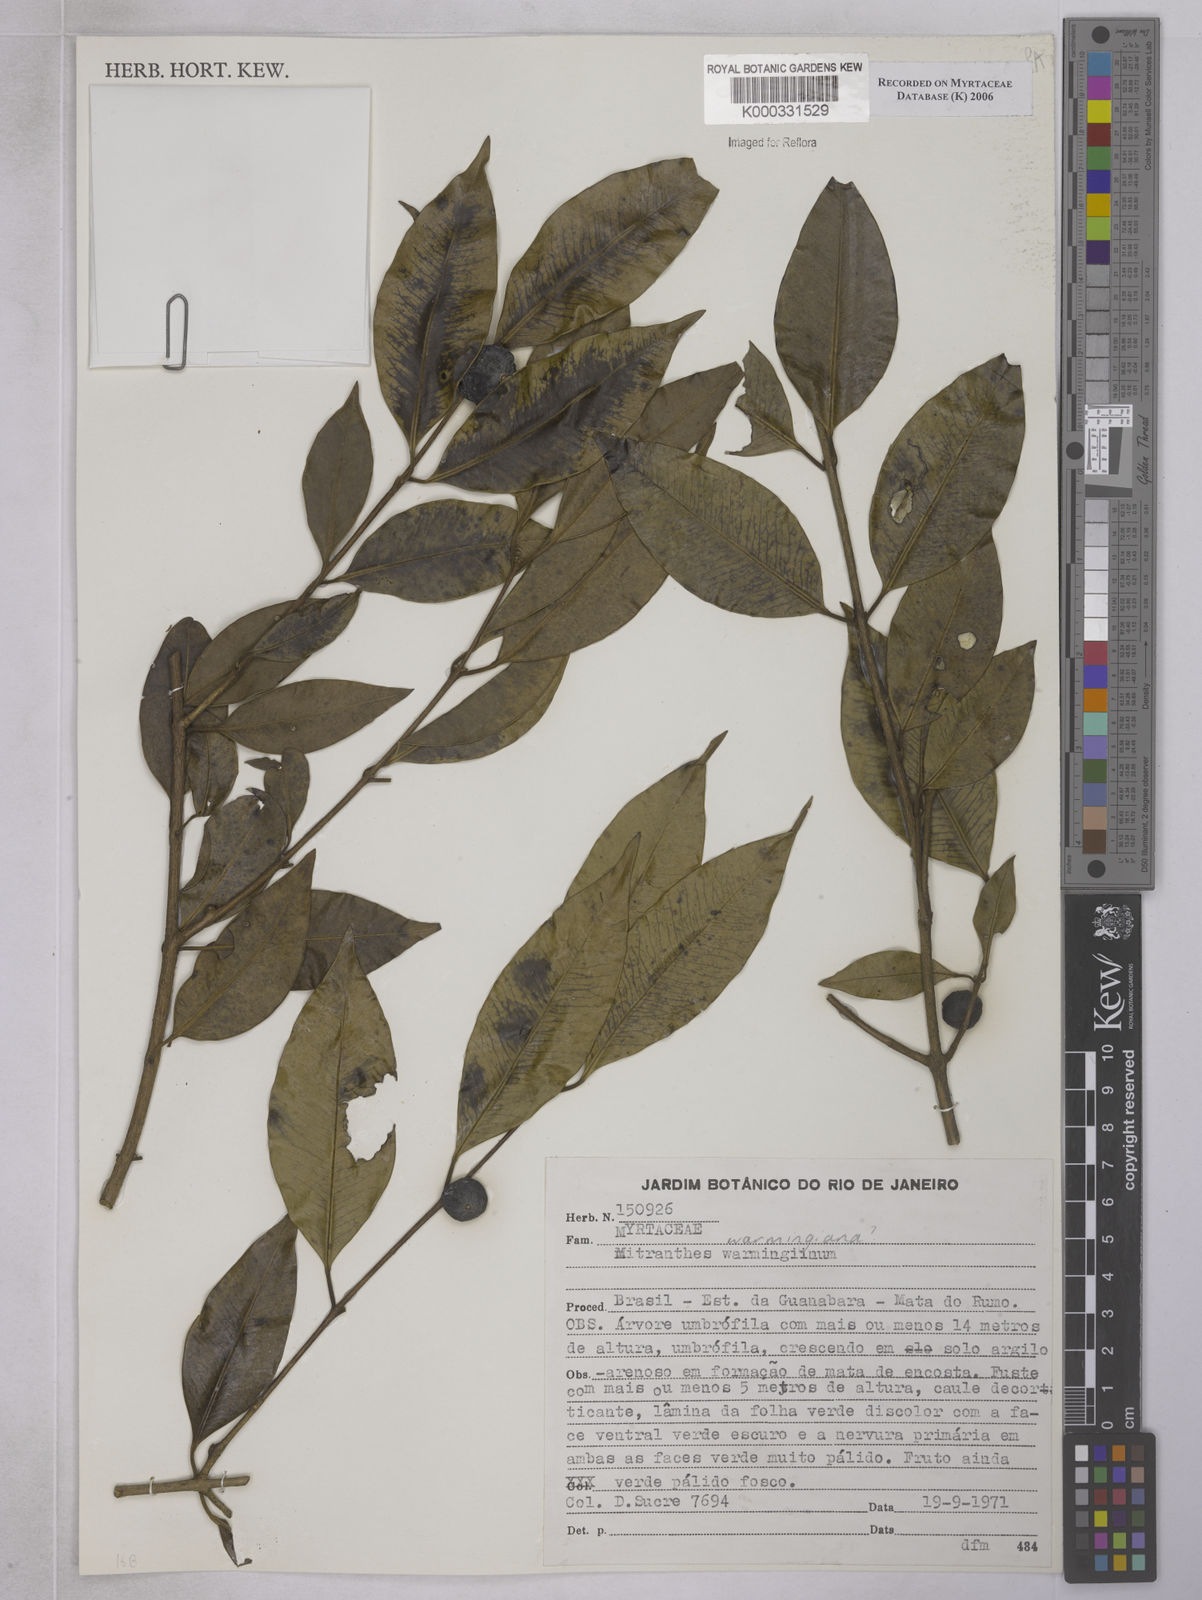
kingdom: Plantae
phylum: Tracheophyta
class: Magnoliopsida
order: Myrtales
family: Myrtaceae
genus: Neomitranthes
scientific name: Neomitranthes warmingiana
